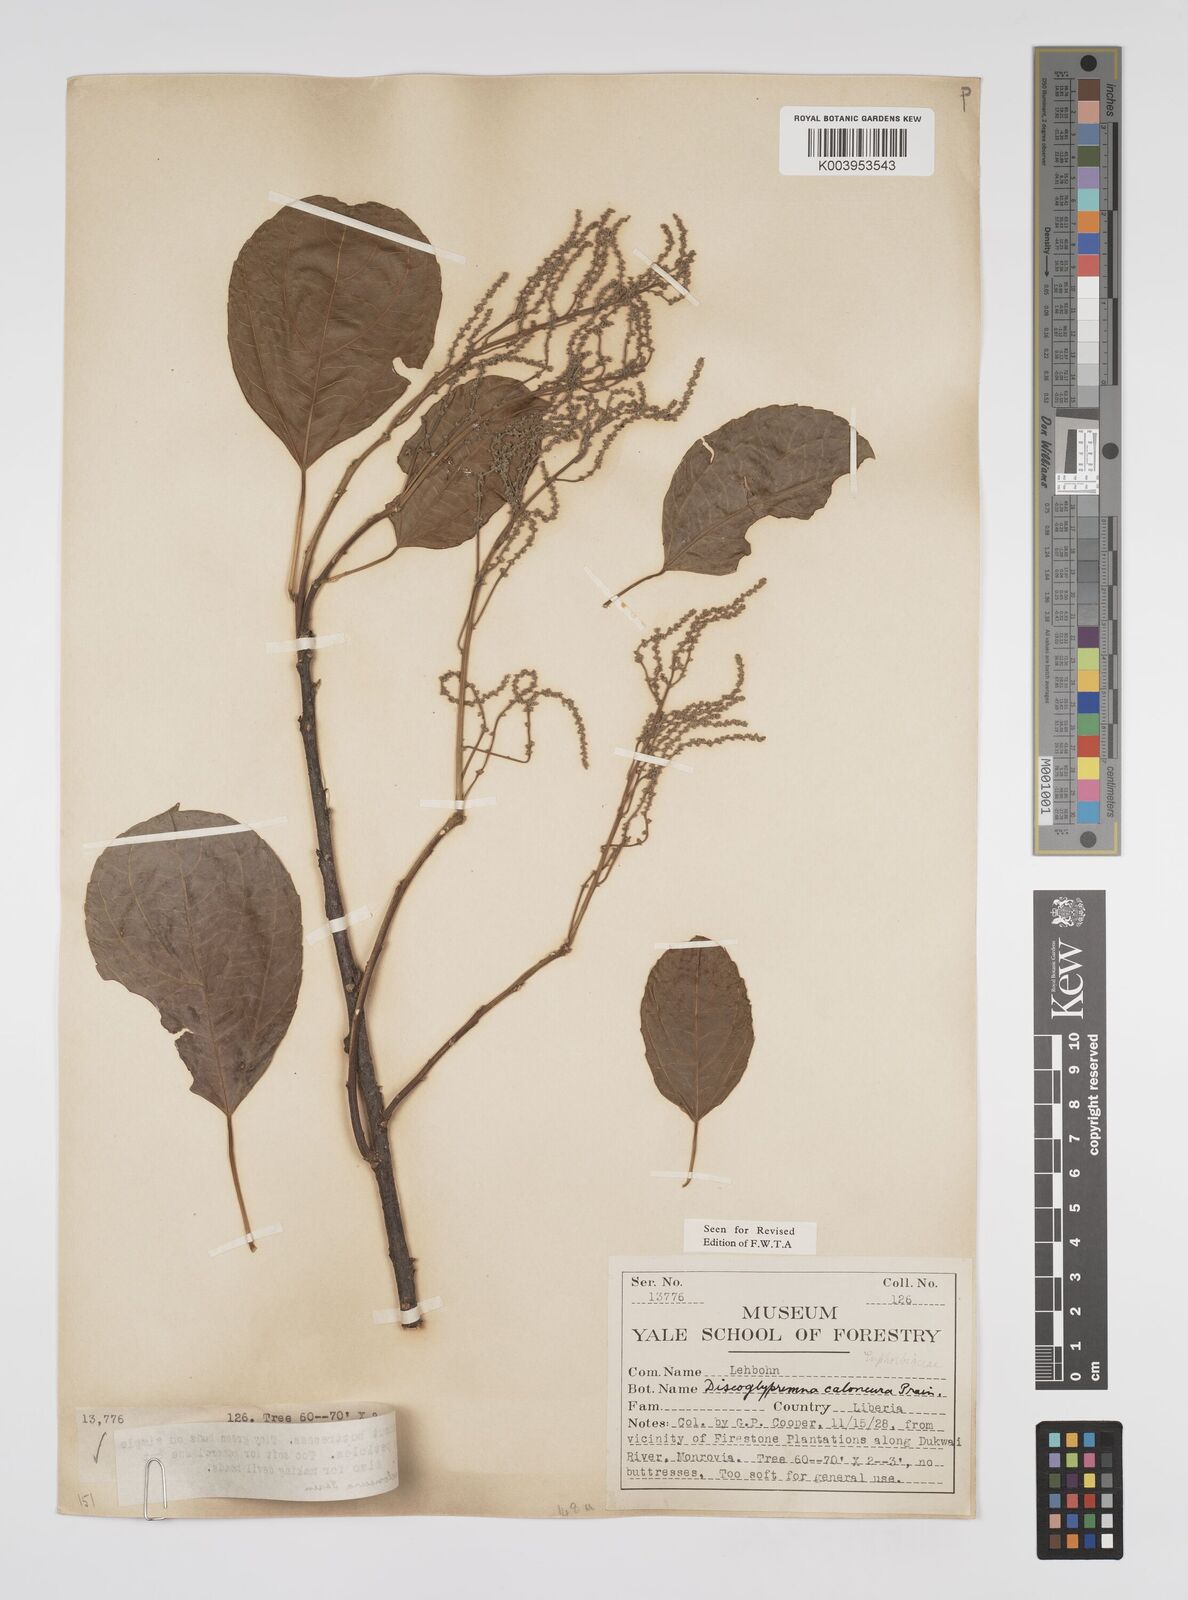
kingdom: Plantae
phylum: Tracheophyta
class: Magnoliopsida
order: Malpighiales
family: Euphorbiaceae
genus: Discoglypremna
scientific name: Discoglypremna caloneura
